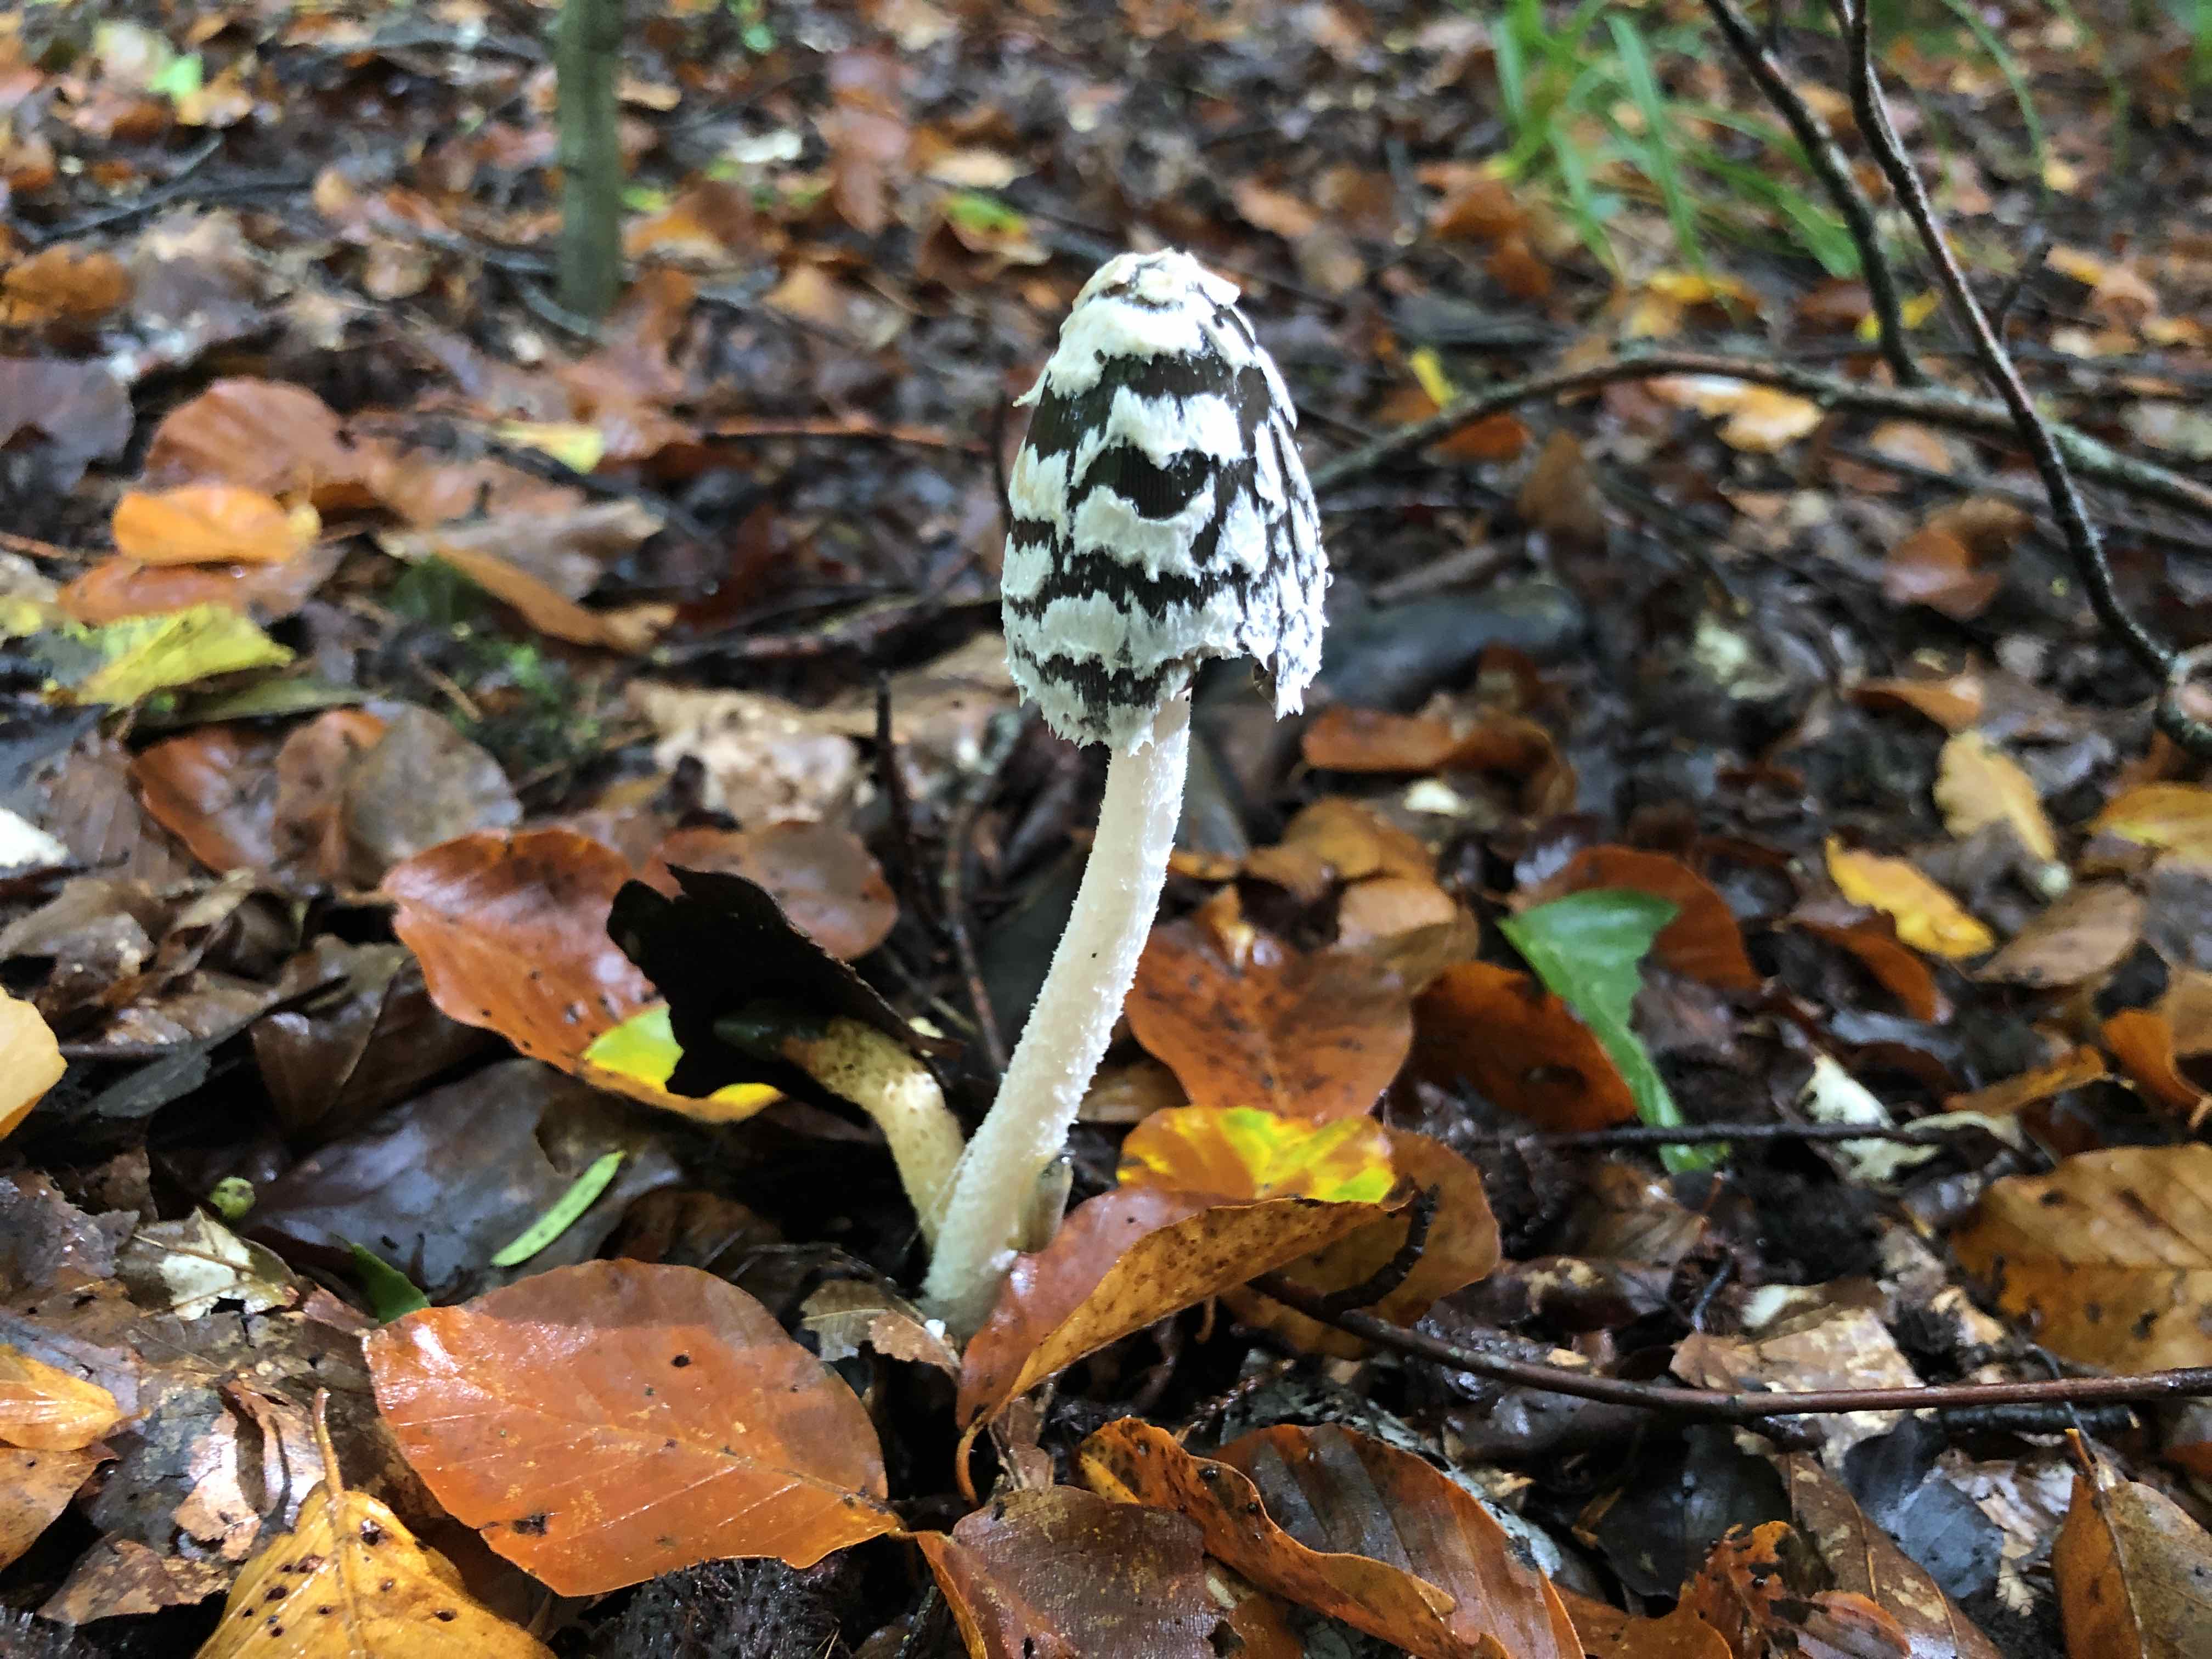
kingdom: Fungi
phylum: Basidiomycota
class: Agaricomycetes
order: Agaricales
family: Psathyrellaceae
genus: Coprinopsis
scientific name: Coprinopsis picacea
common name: skade-blækhat
